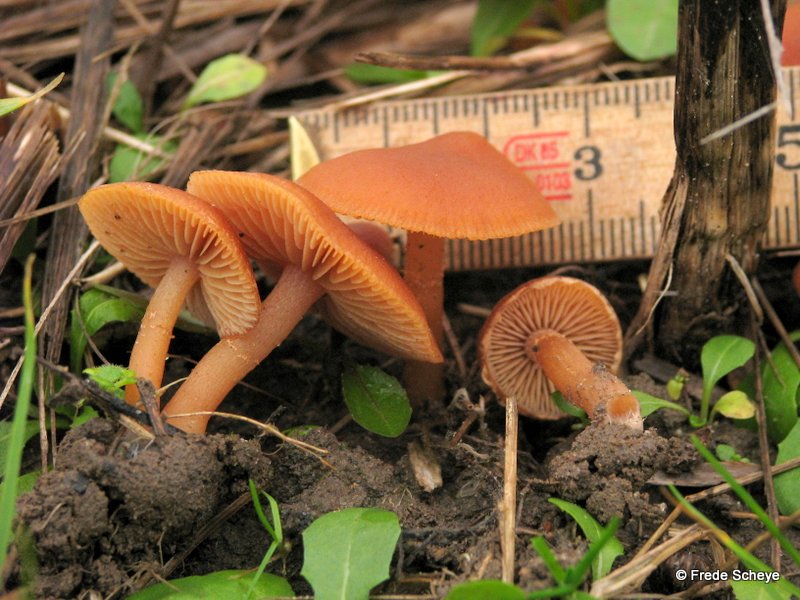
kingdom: Fungi
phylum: Basidiomycota
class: Agaricomycetes
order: Agaricales
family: Tubariaceae
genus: Tubaria
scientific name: Tubaria furfuracea
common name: kliddet fnughat
